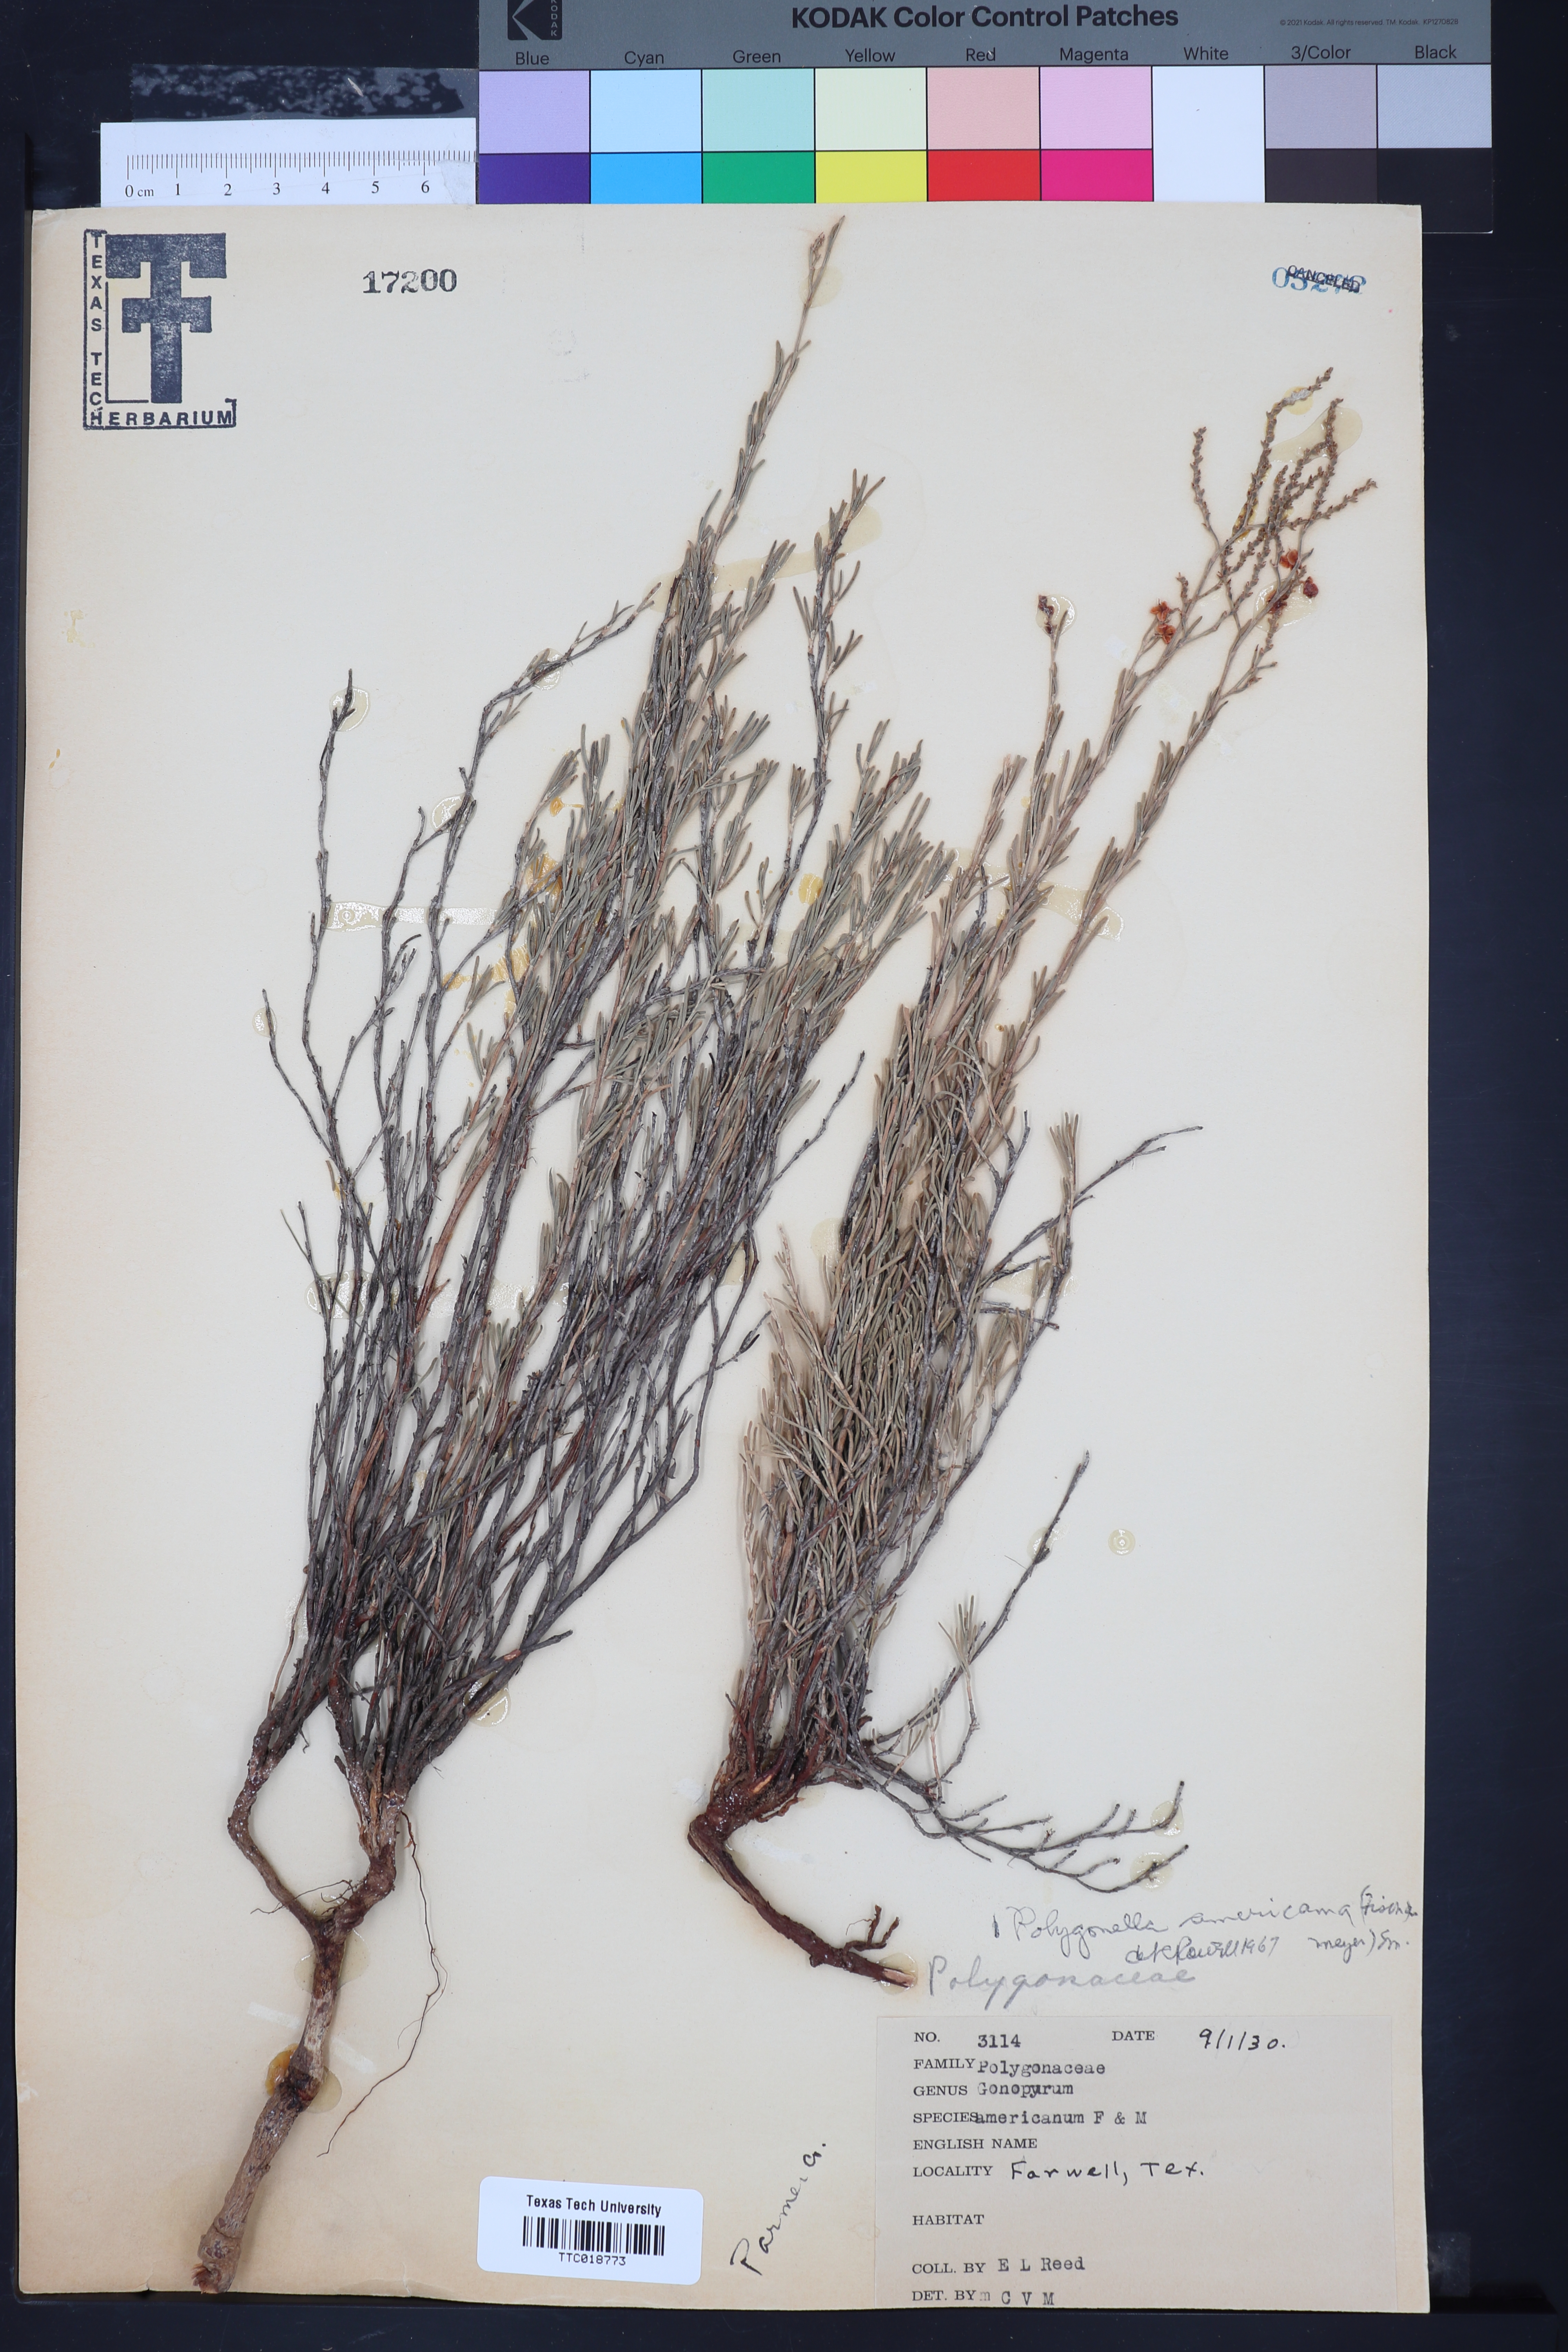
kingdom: Plantae
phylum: Tracheophyta
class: Magnoliopsida
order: Caryophyllales
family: Polygonaceae
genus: Polygonella
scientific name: Polygonella americana
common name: Southern jointweed
